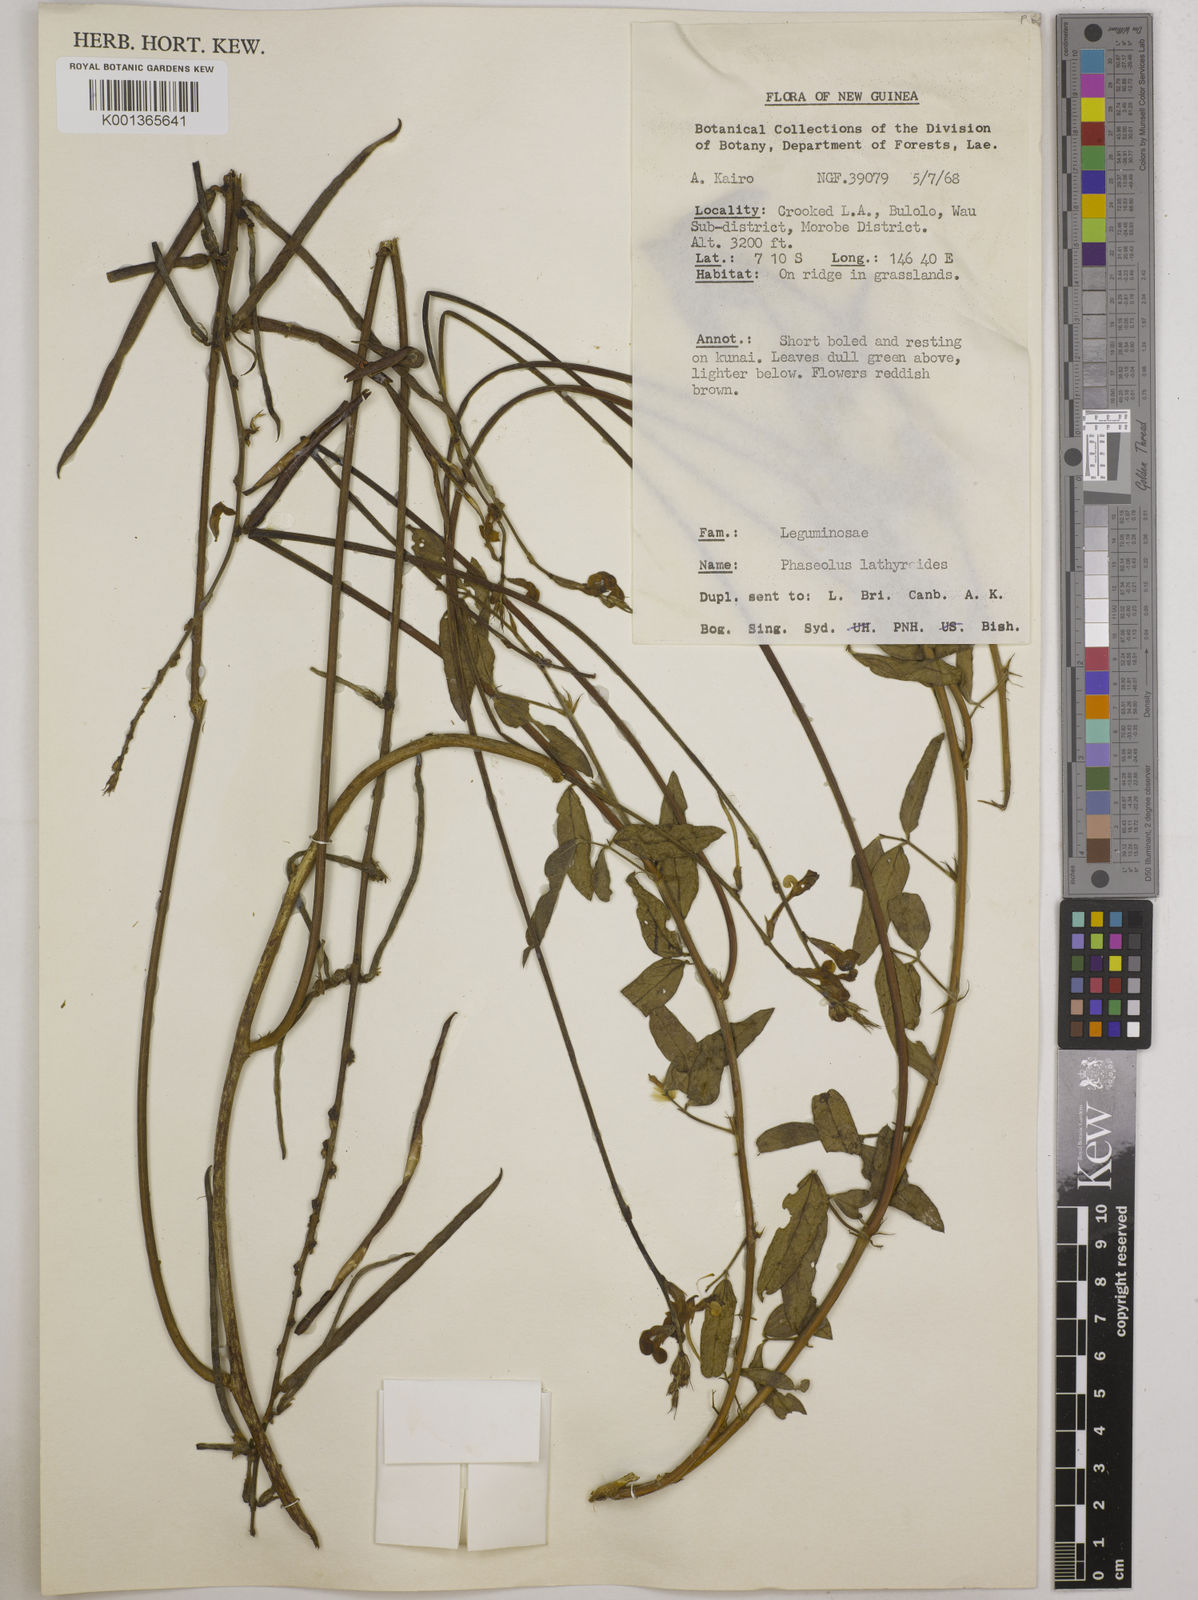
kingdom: Plantae
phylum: Tracheophyta
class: Magnoliopsida
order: Fabales
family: Fabaceae
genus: Macroptilium
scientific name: Macroptilium lathyroides
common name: Wild bushbean
